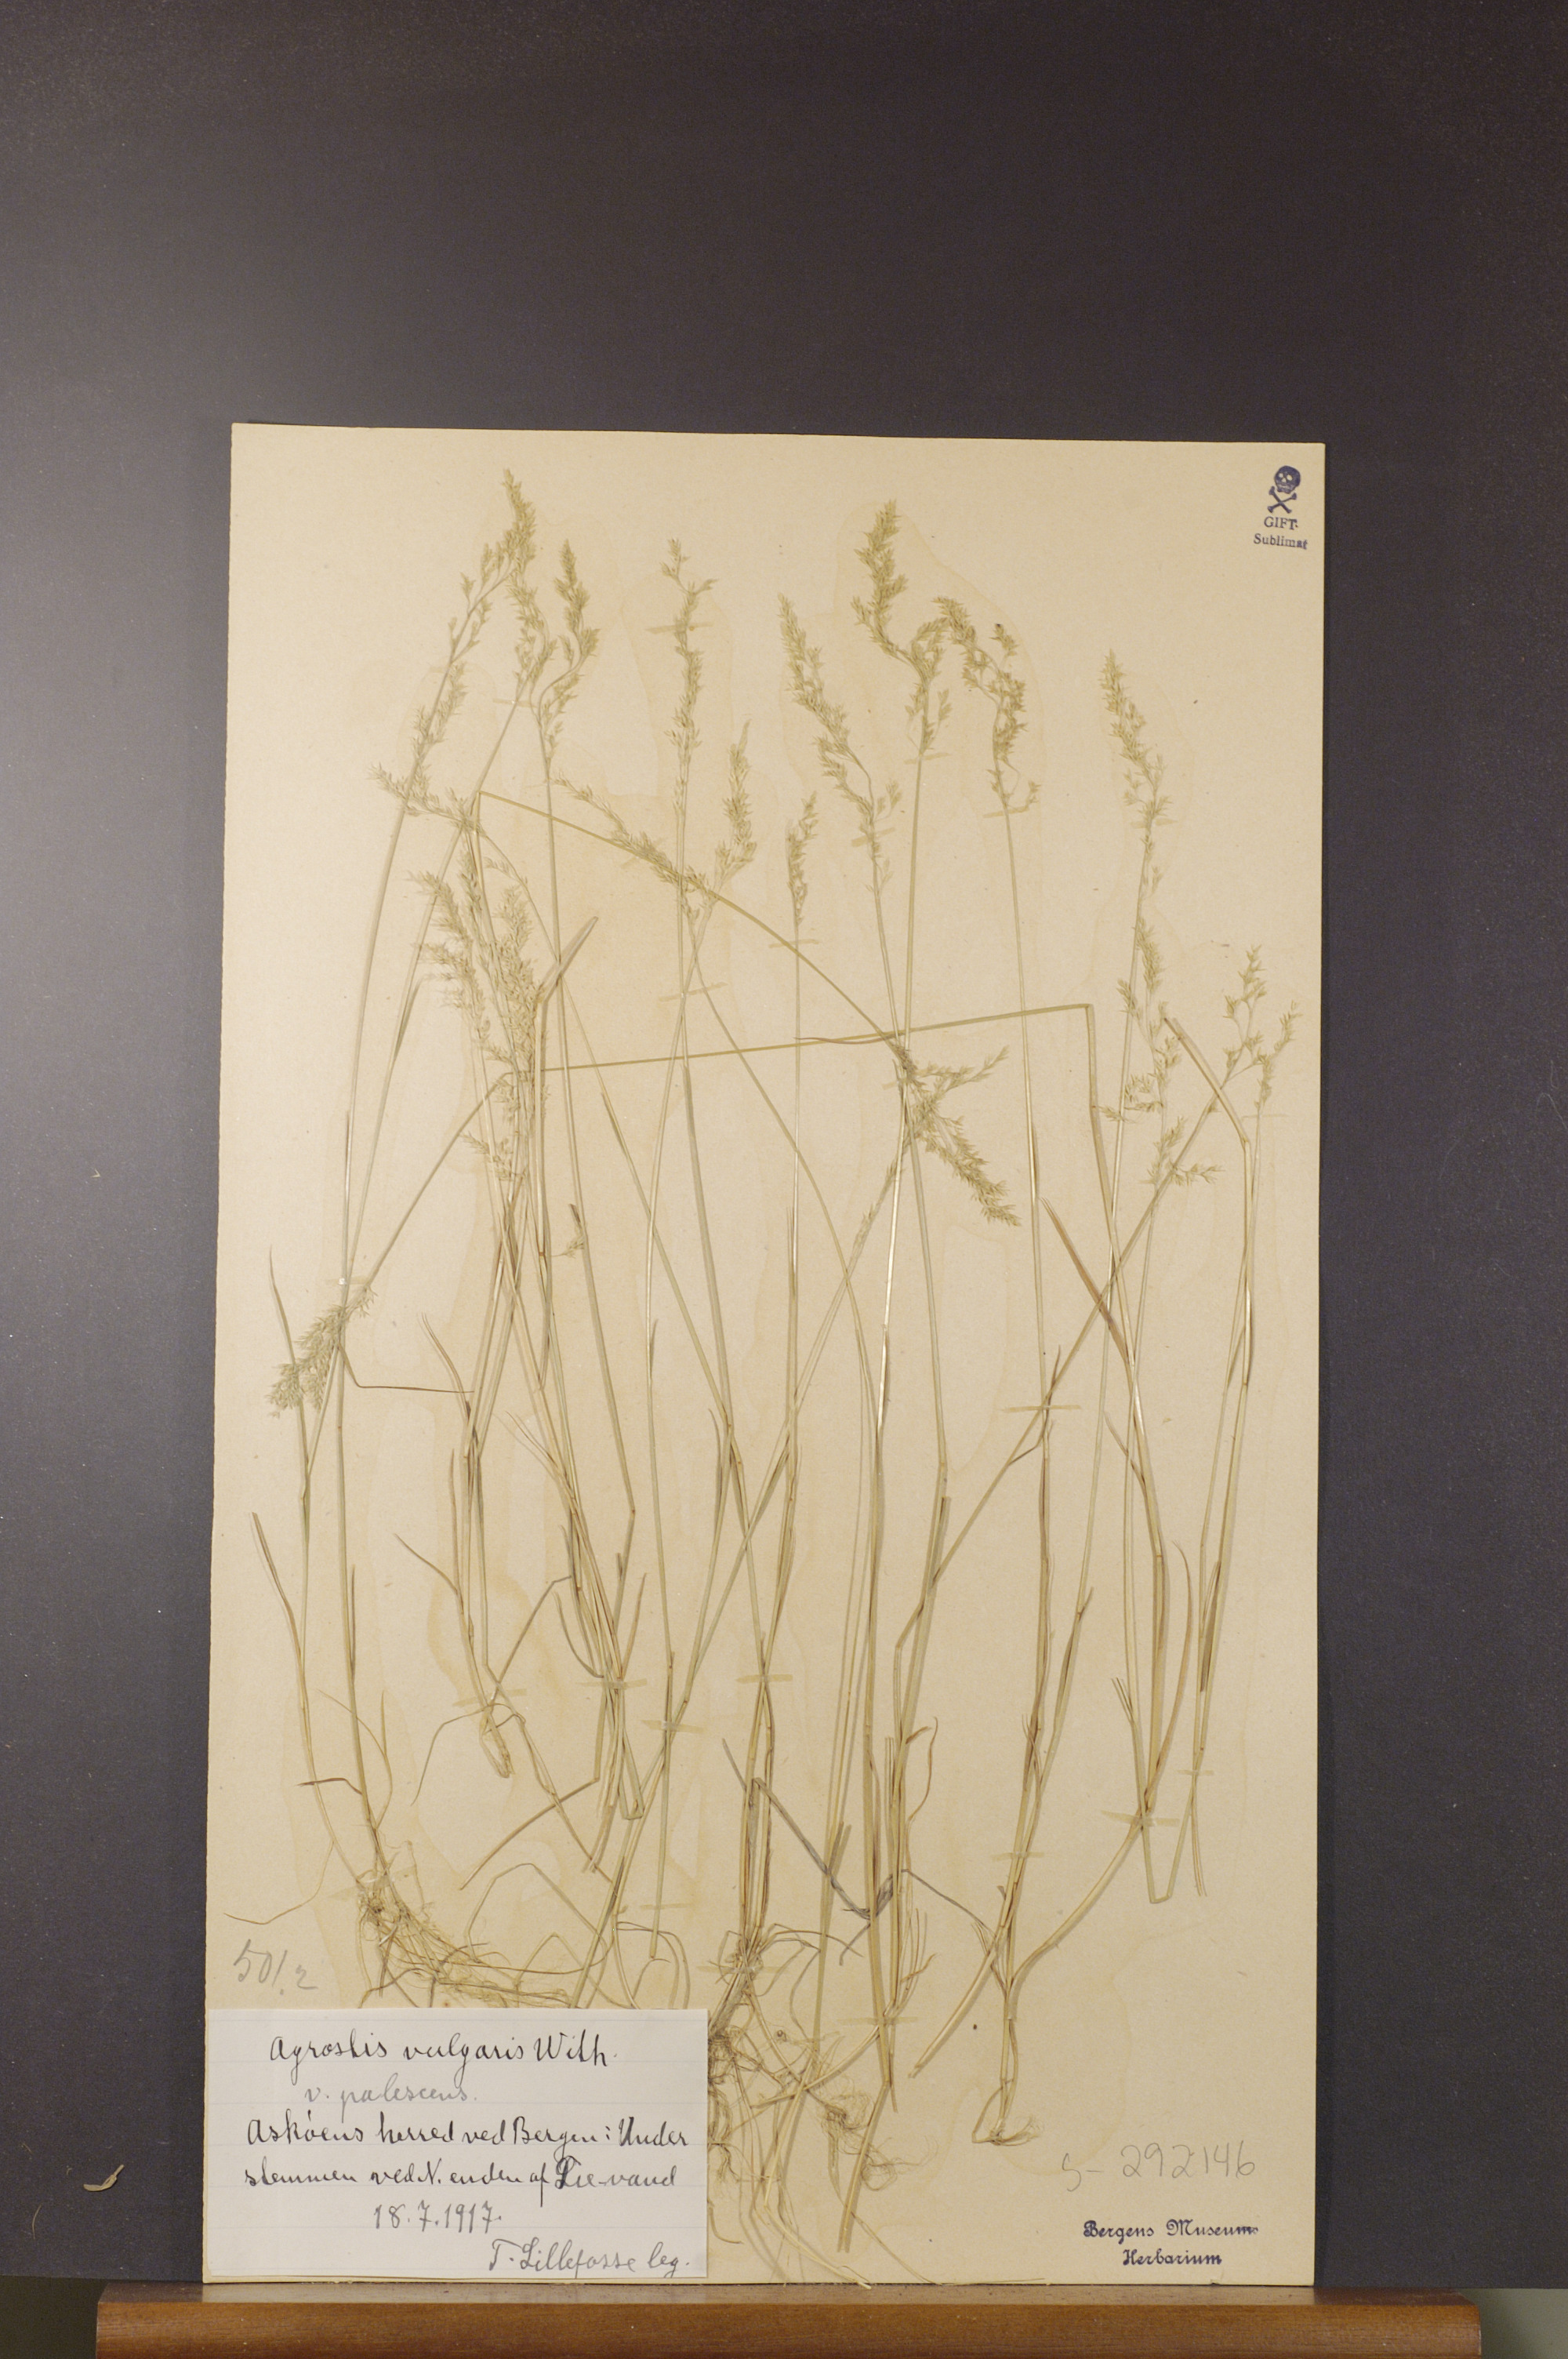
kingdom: Plantae
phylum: Tracheophyta
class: Liliopsida
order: Poales
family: Poaceae
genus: Agrostis
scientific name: Agrostis capillaris
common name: Colonial bentgrass
